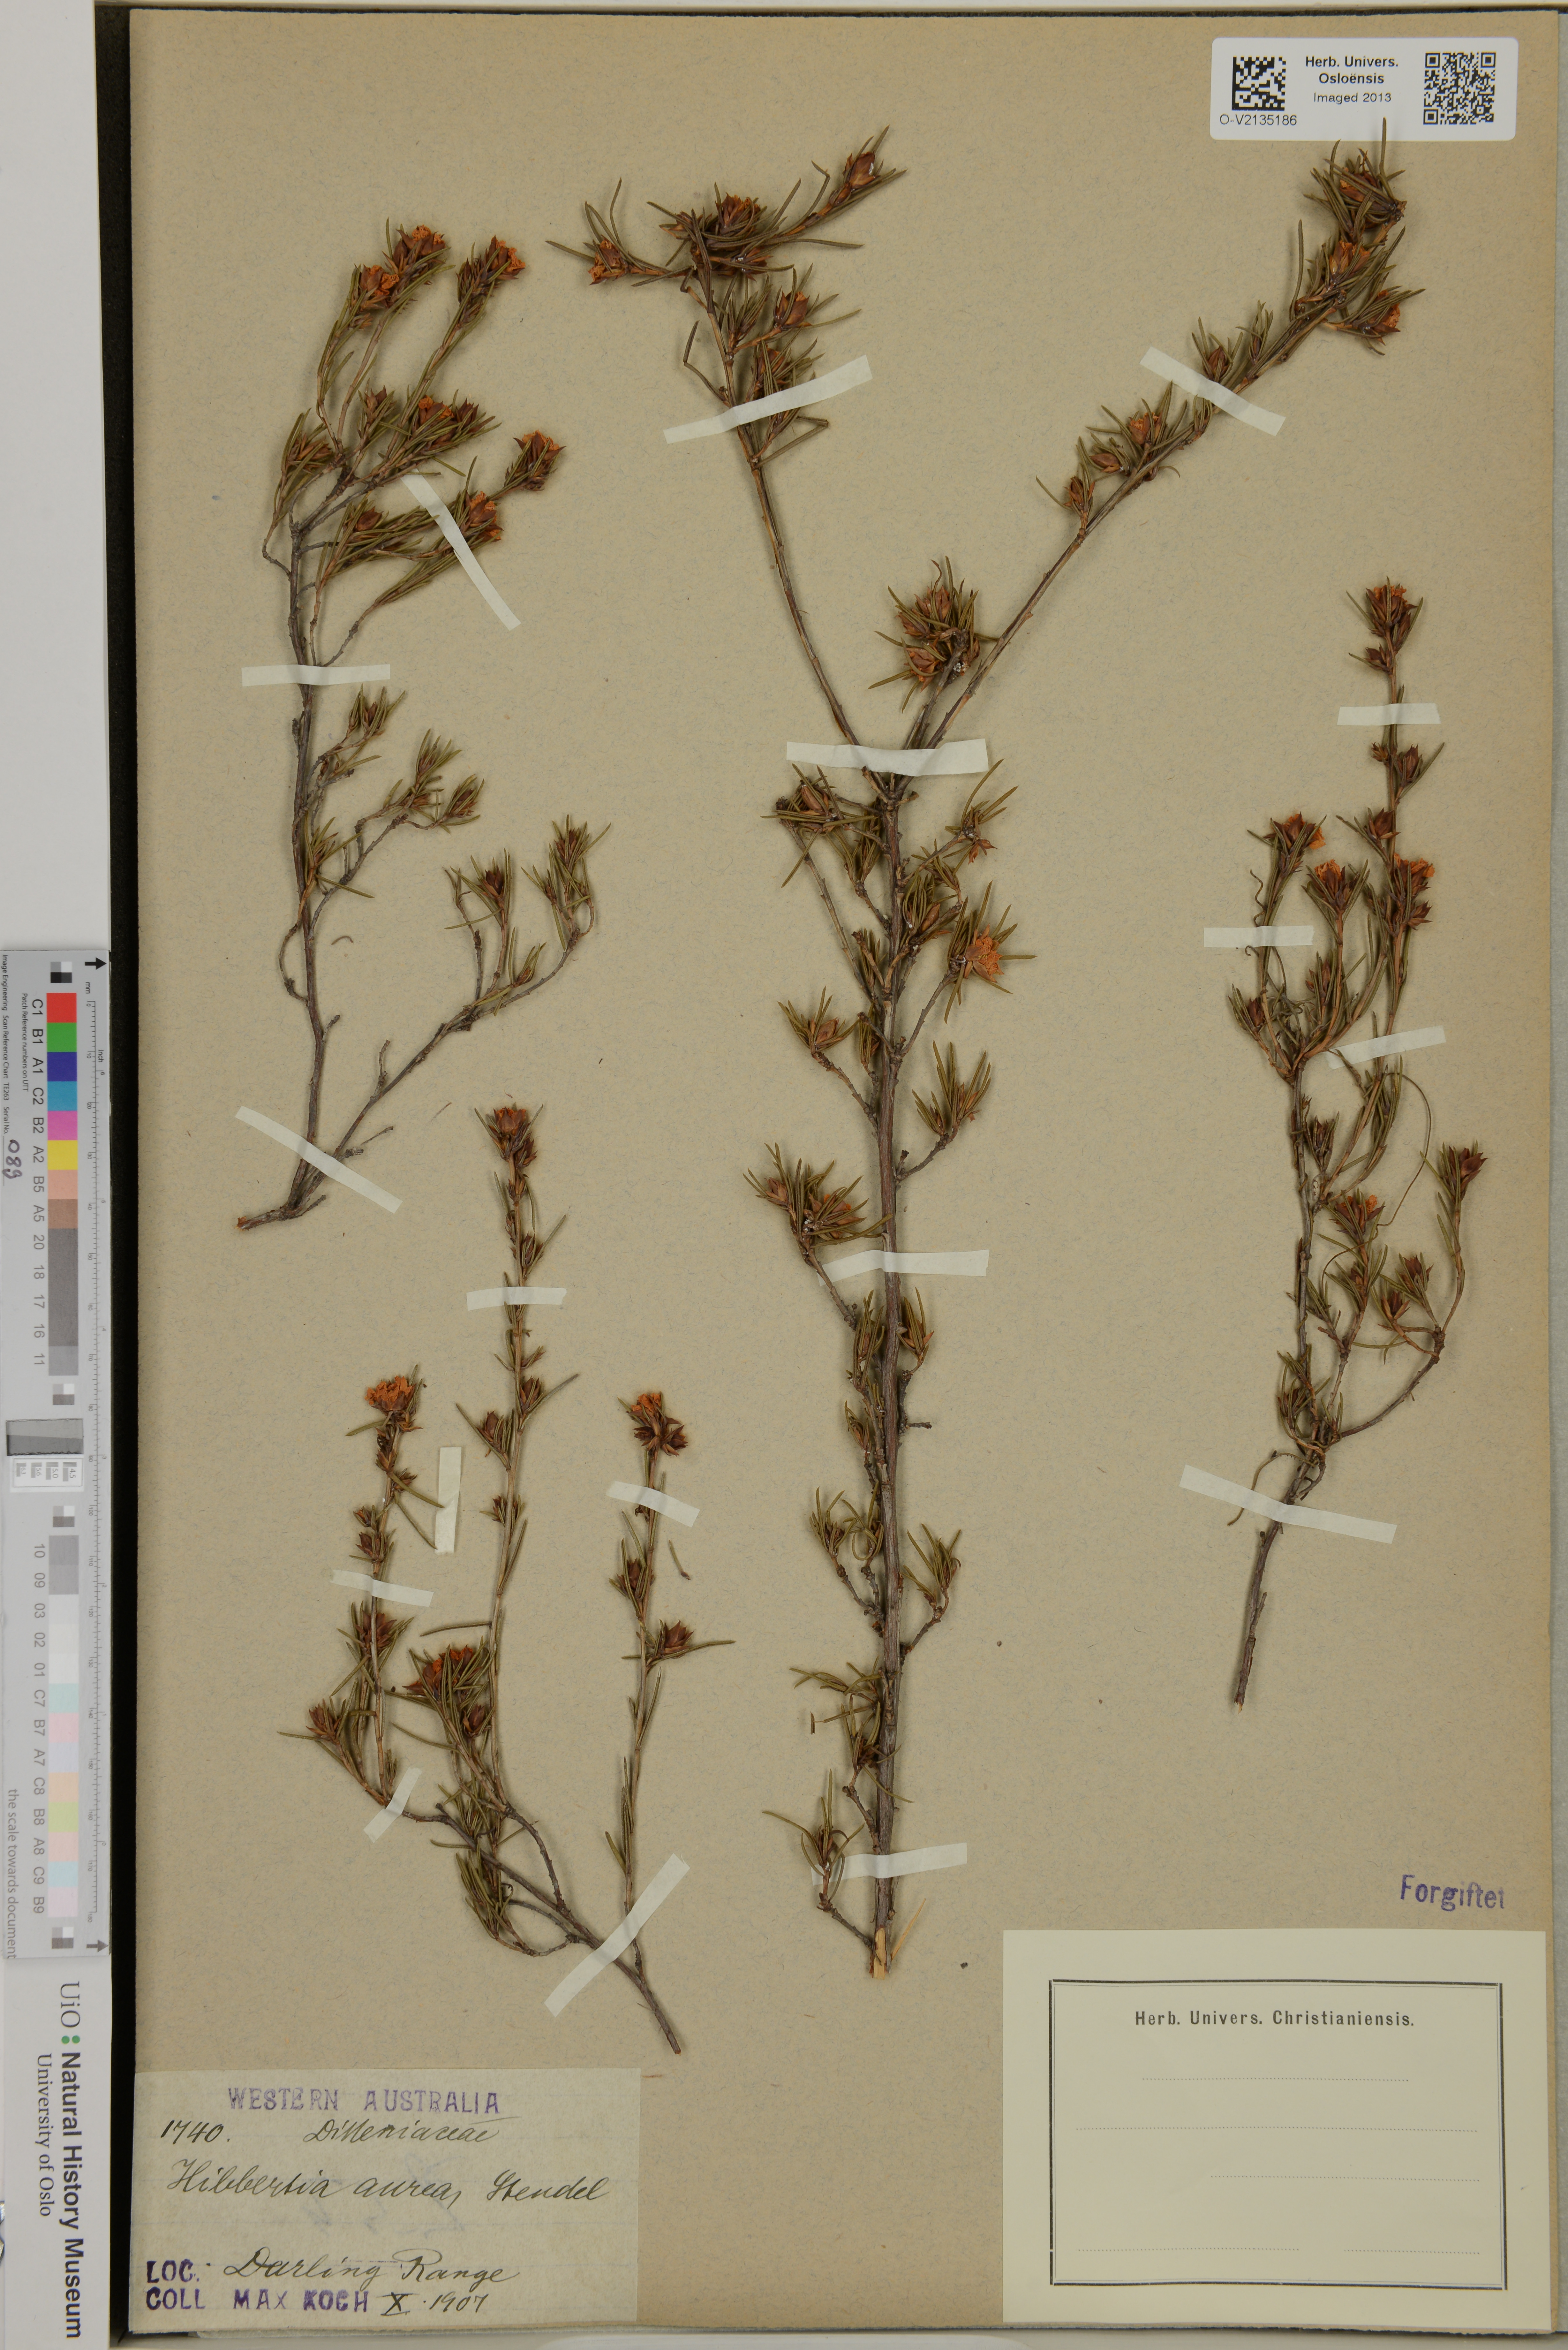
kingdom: Plantae
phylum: Tracheophyta
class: Magnoliopsida
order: Dilleniales
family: Dilleniaceae
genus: Hibbertia
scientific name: Hibbertia aurea
